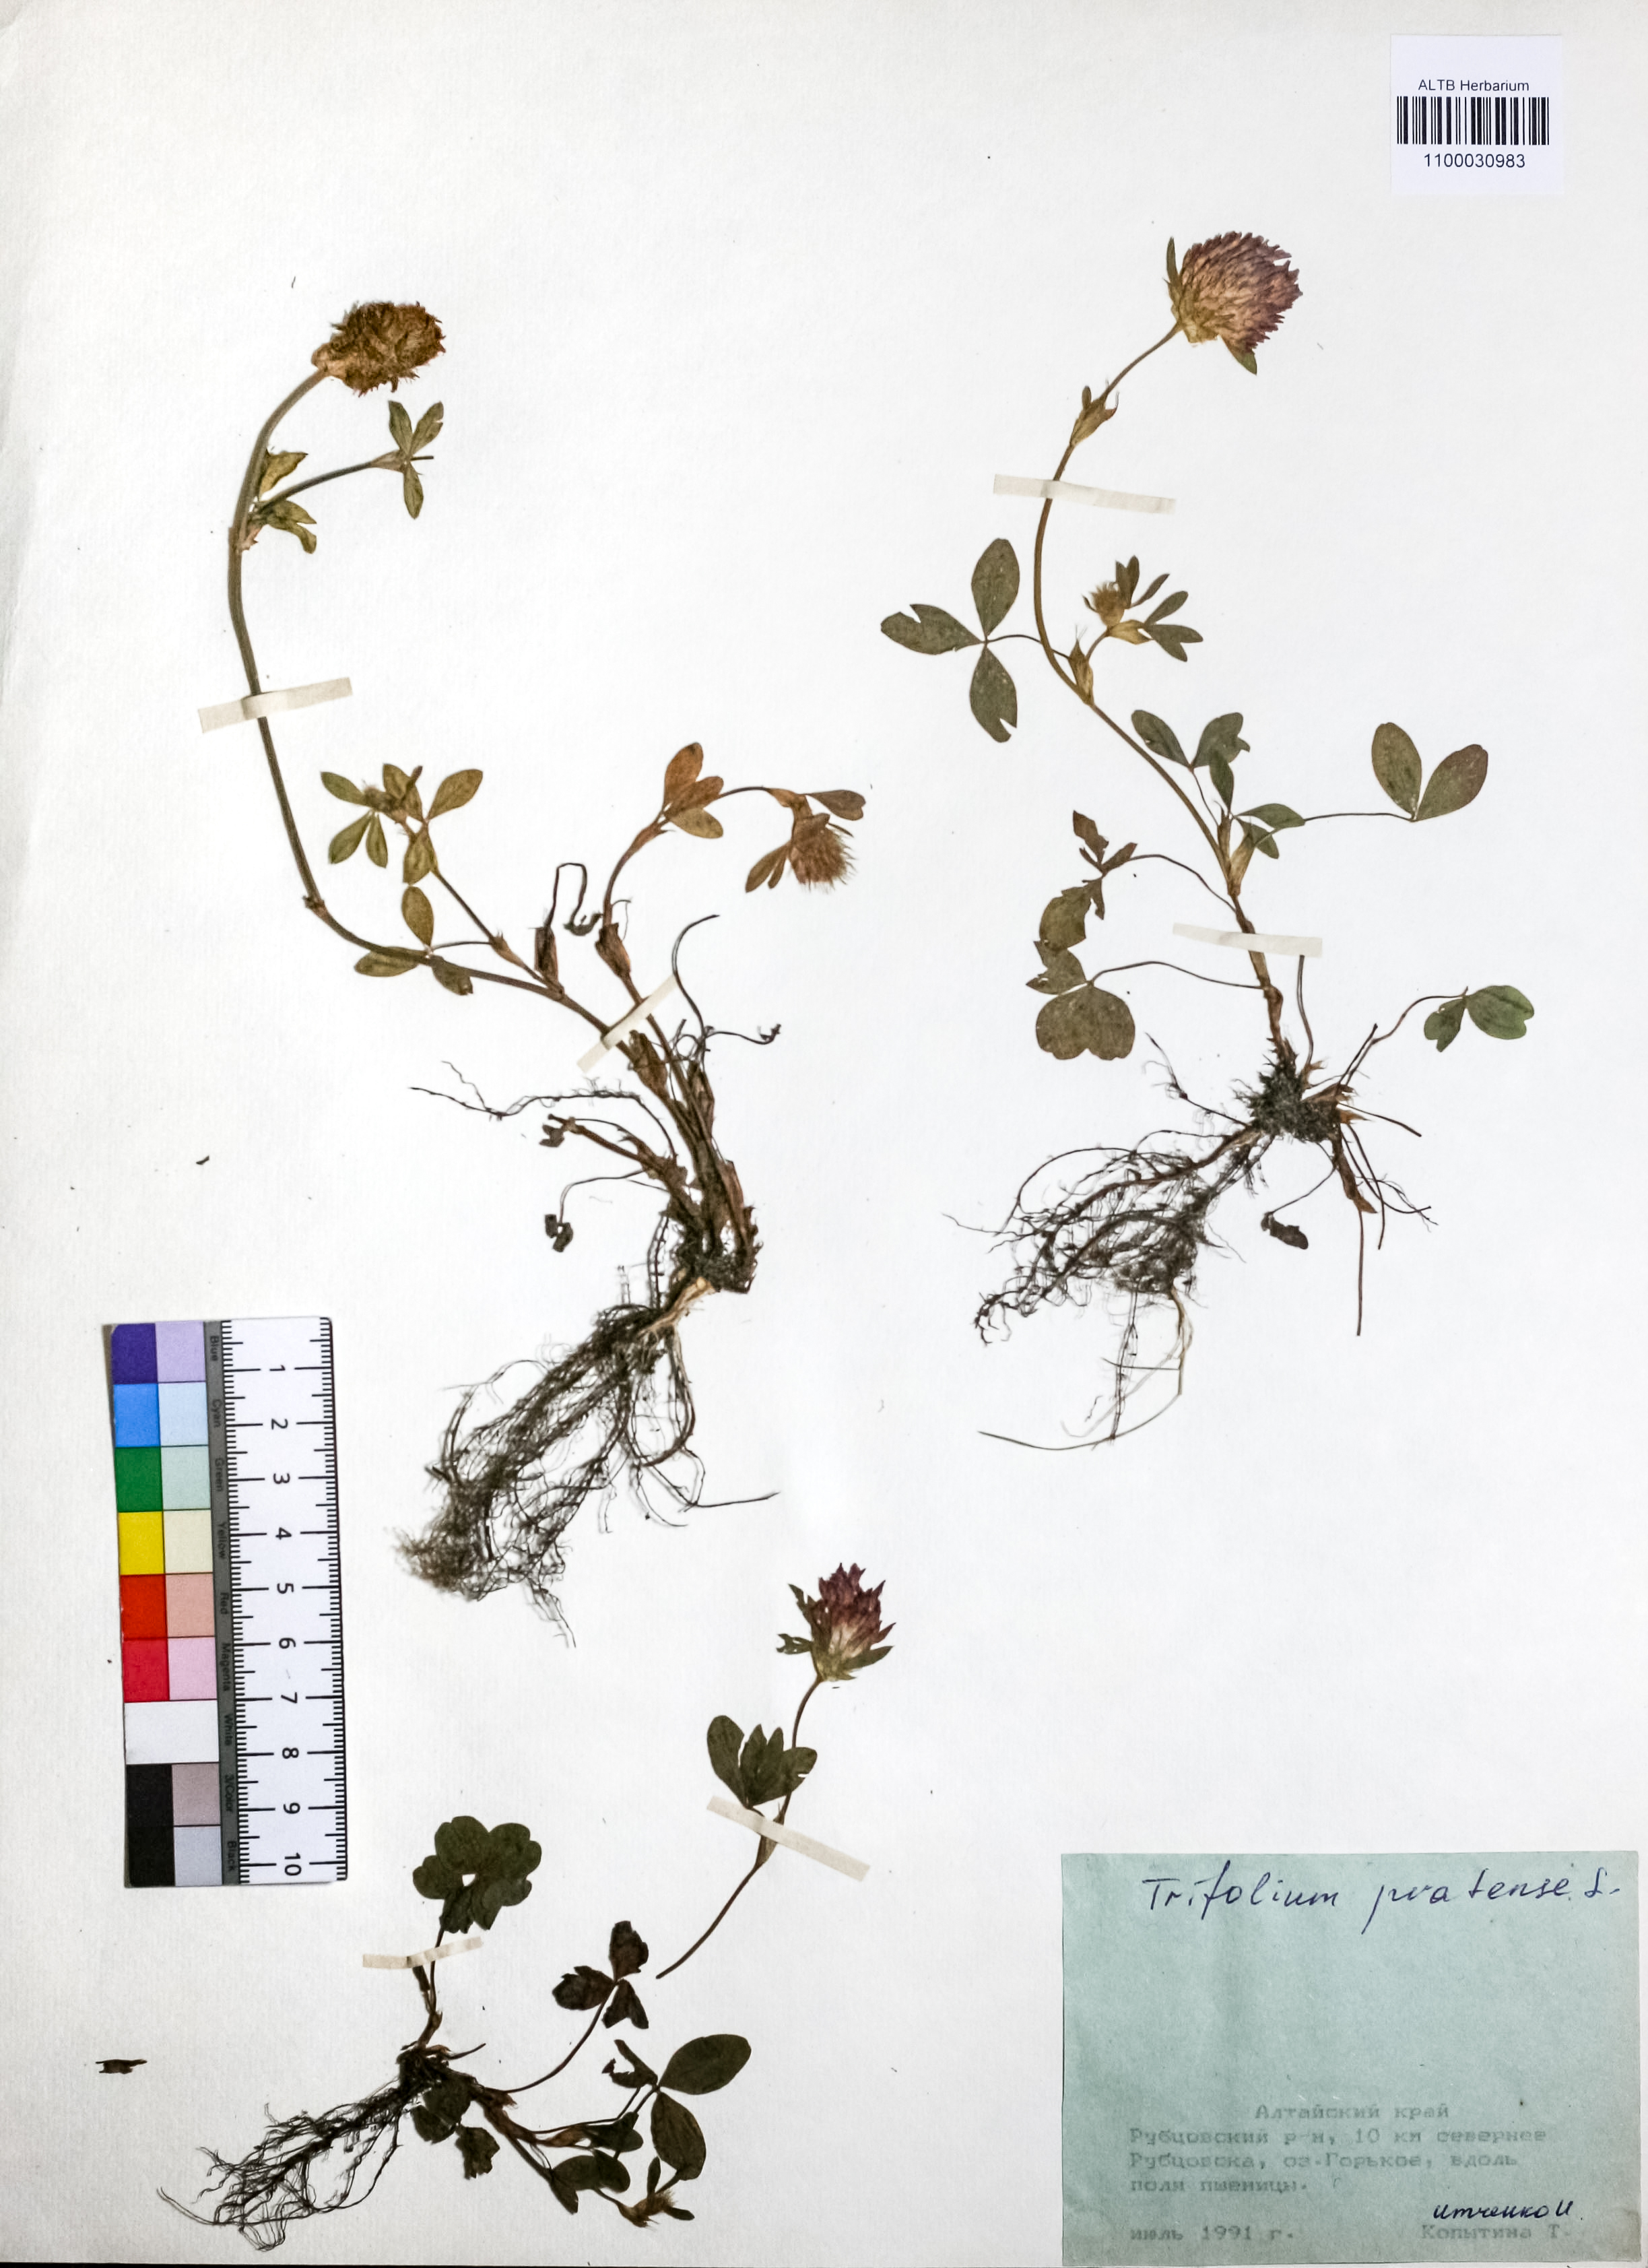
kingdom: Plantae
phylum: Tracheophyta
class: Magnoliopsida
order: Fabales
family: Fabaceae
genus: Trifolium
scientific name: Trifolium pratense
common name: Red clover
